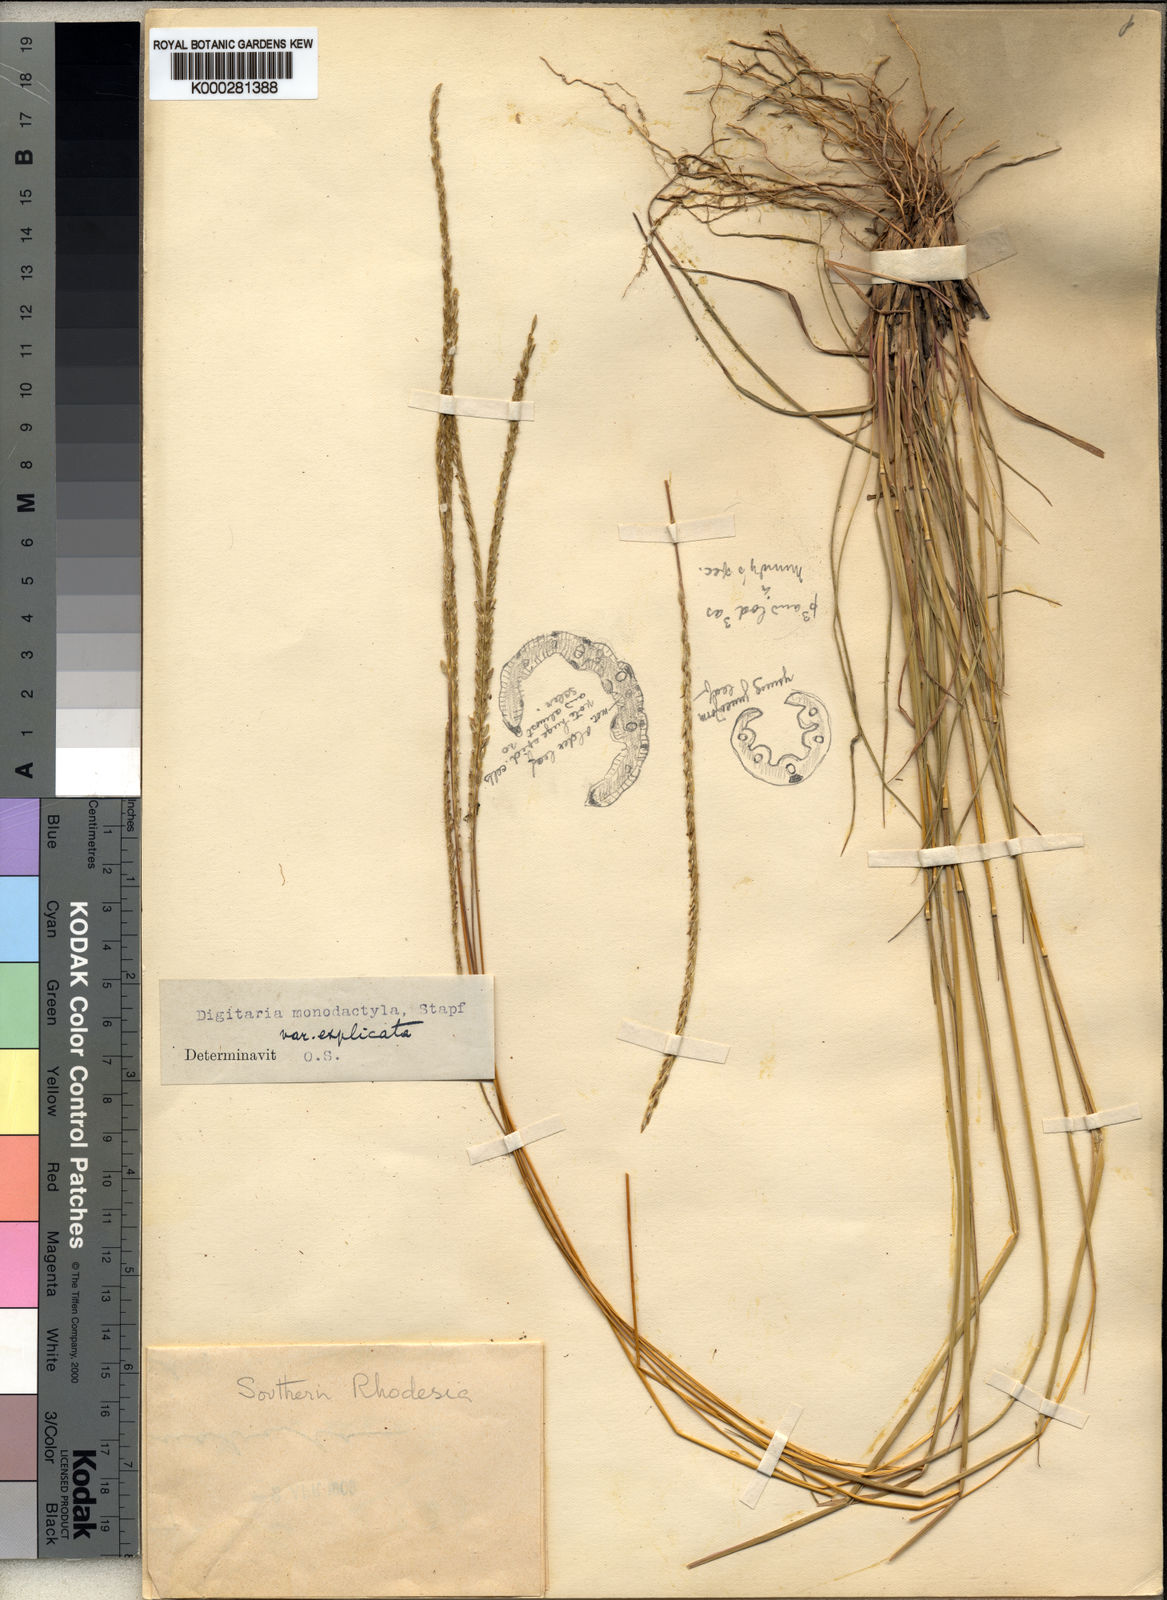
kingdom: Plantae
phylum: Tracheophyta
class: Liliopsida
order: Poales
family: Poaceae
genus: Digitaria
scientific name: Digitaria monodactyla
